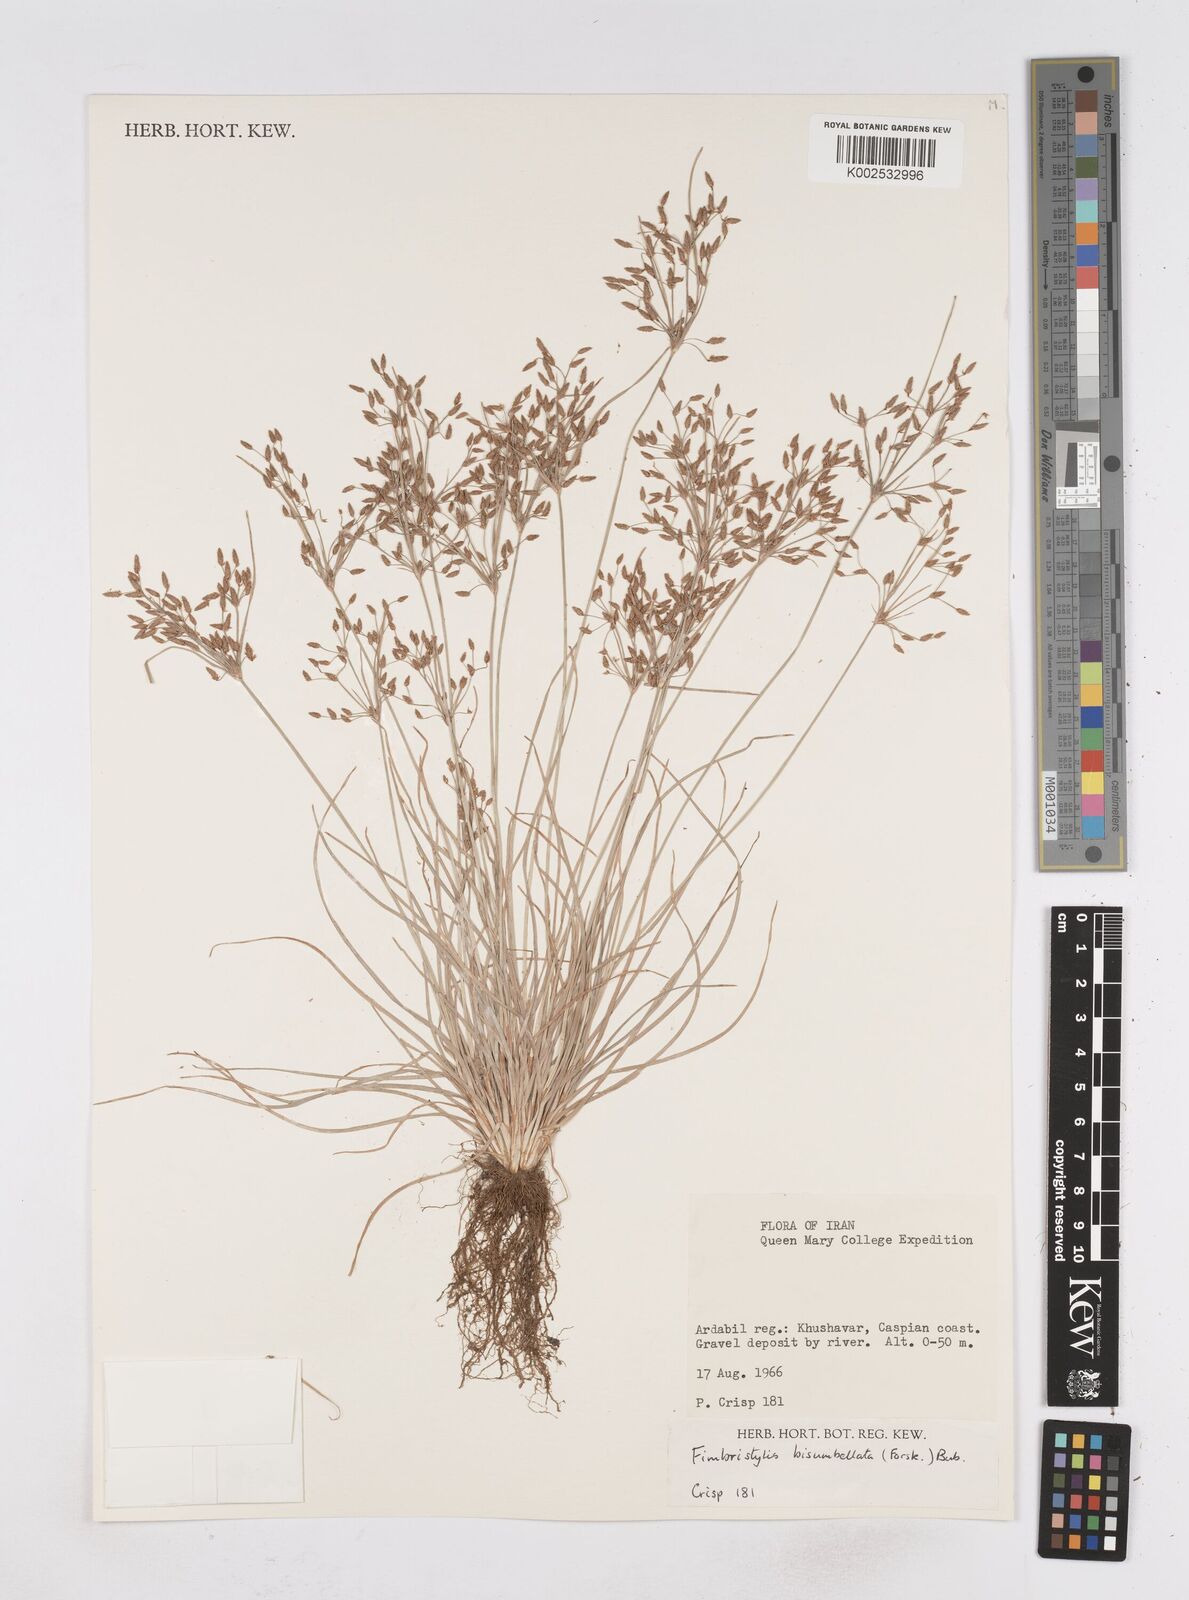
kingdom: Plantae
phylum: Tracheophyta
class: Liliopsida
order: Poales
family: Cyperaceae
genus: Fimbristylis
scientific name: Fimbristylis bisumbellata
